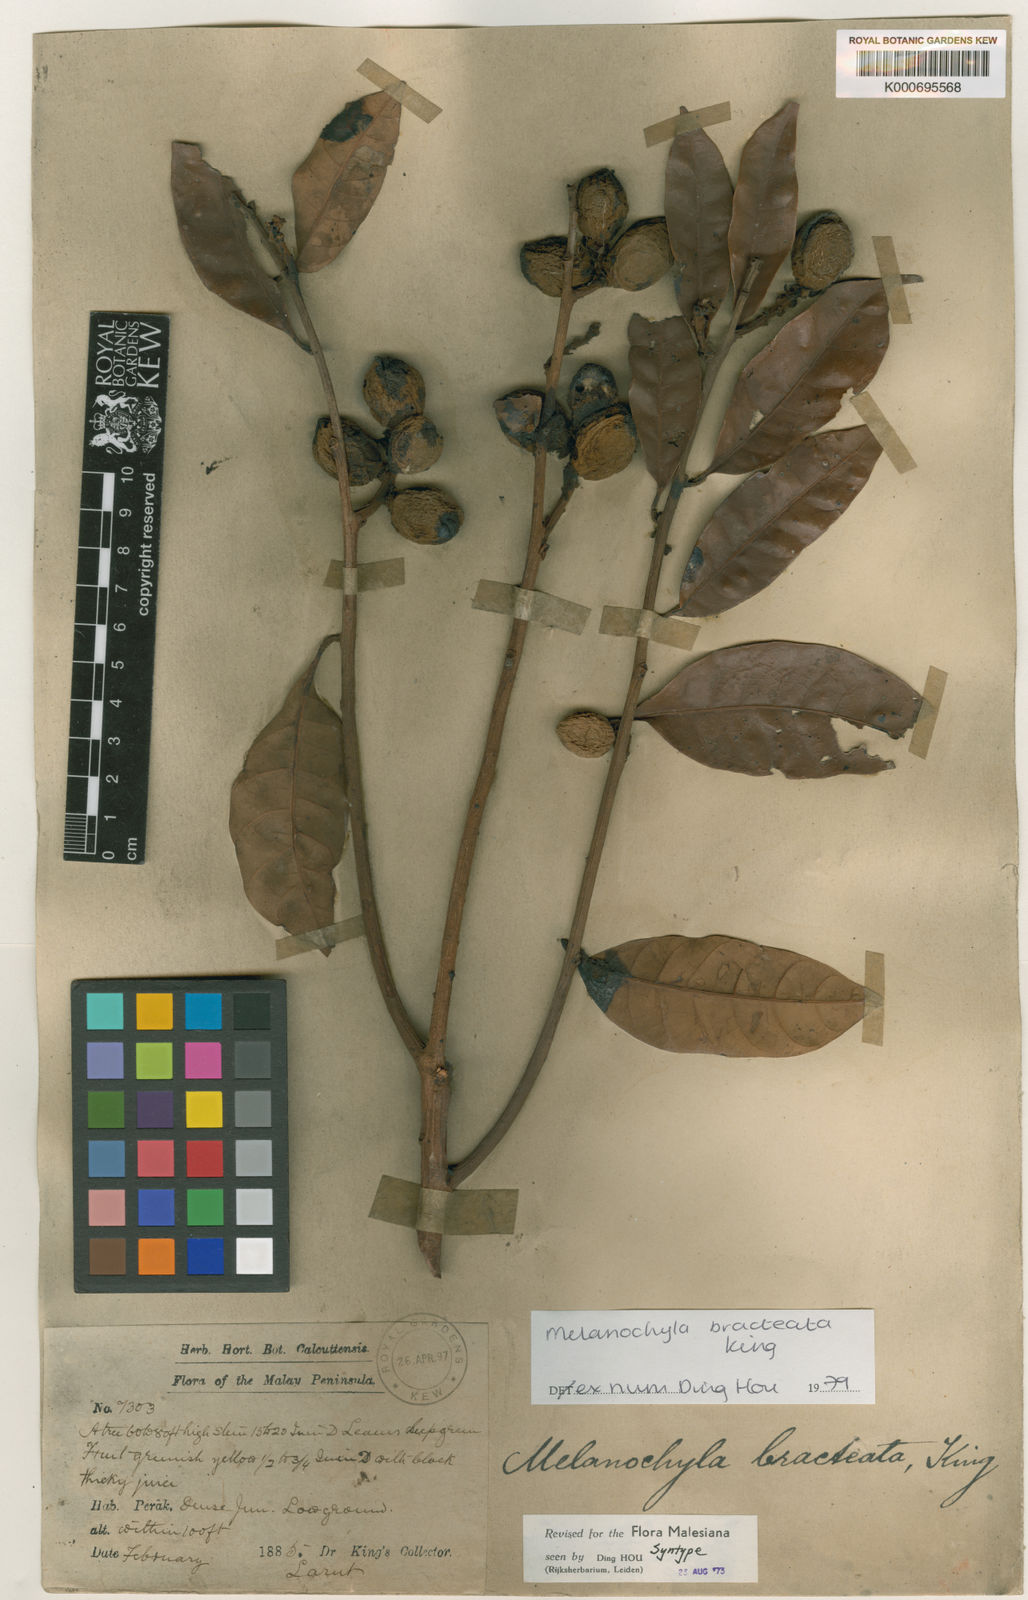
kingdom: Plantae
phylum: Tracheophyta
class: Magnoliopsida
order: Sapindales
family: Anacardiaceae
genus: Melanochyla
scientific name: Melanochyla bracteata
